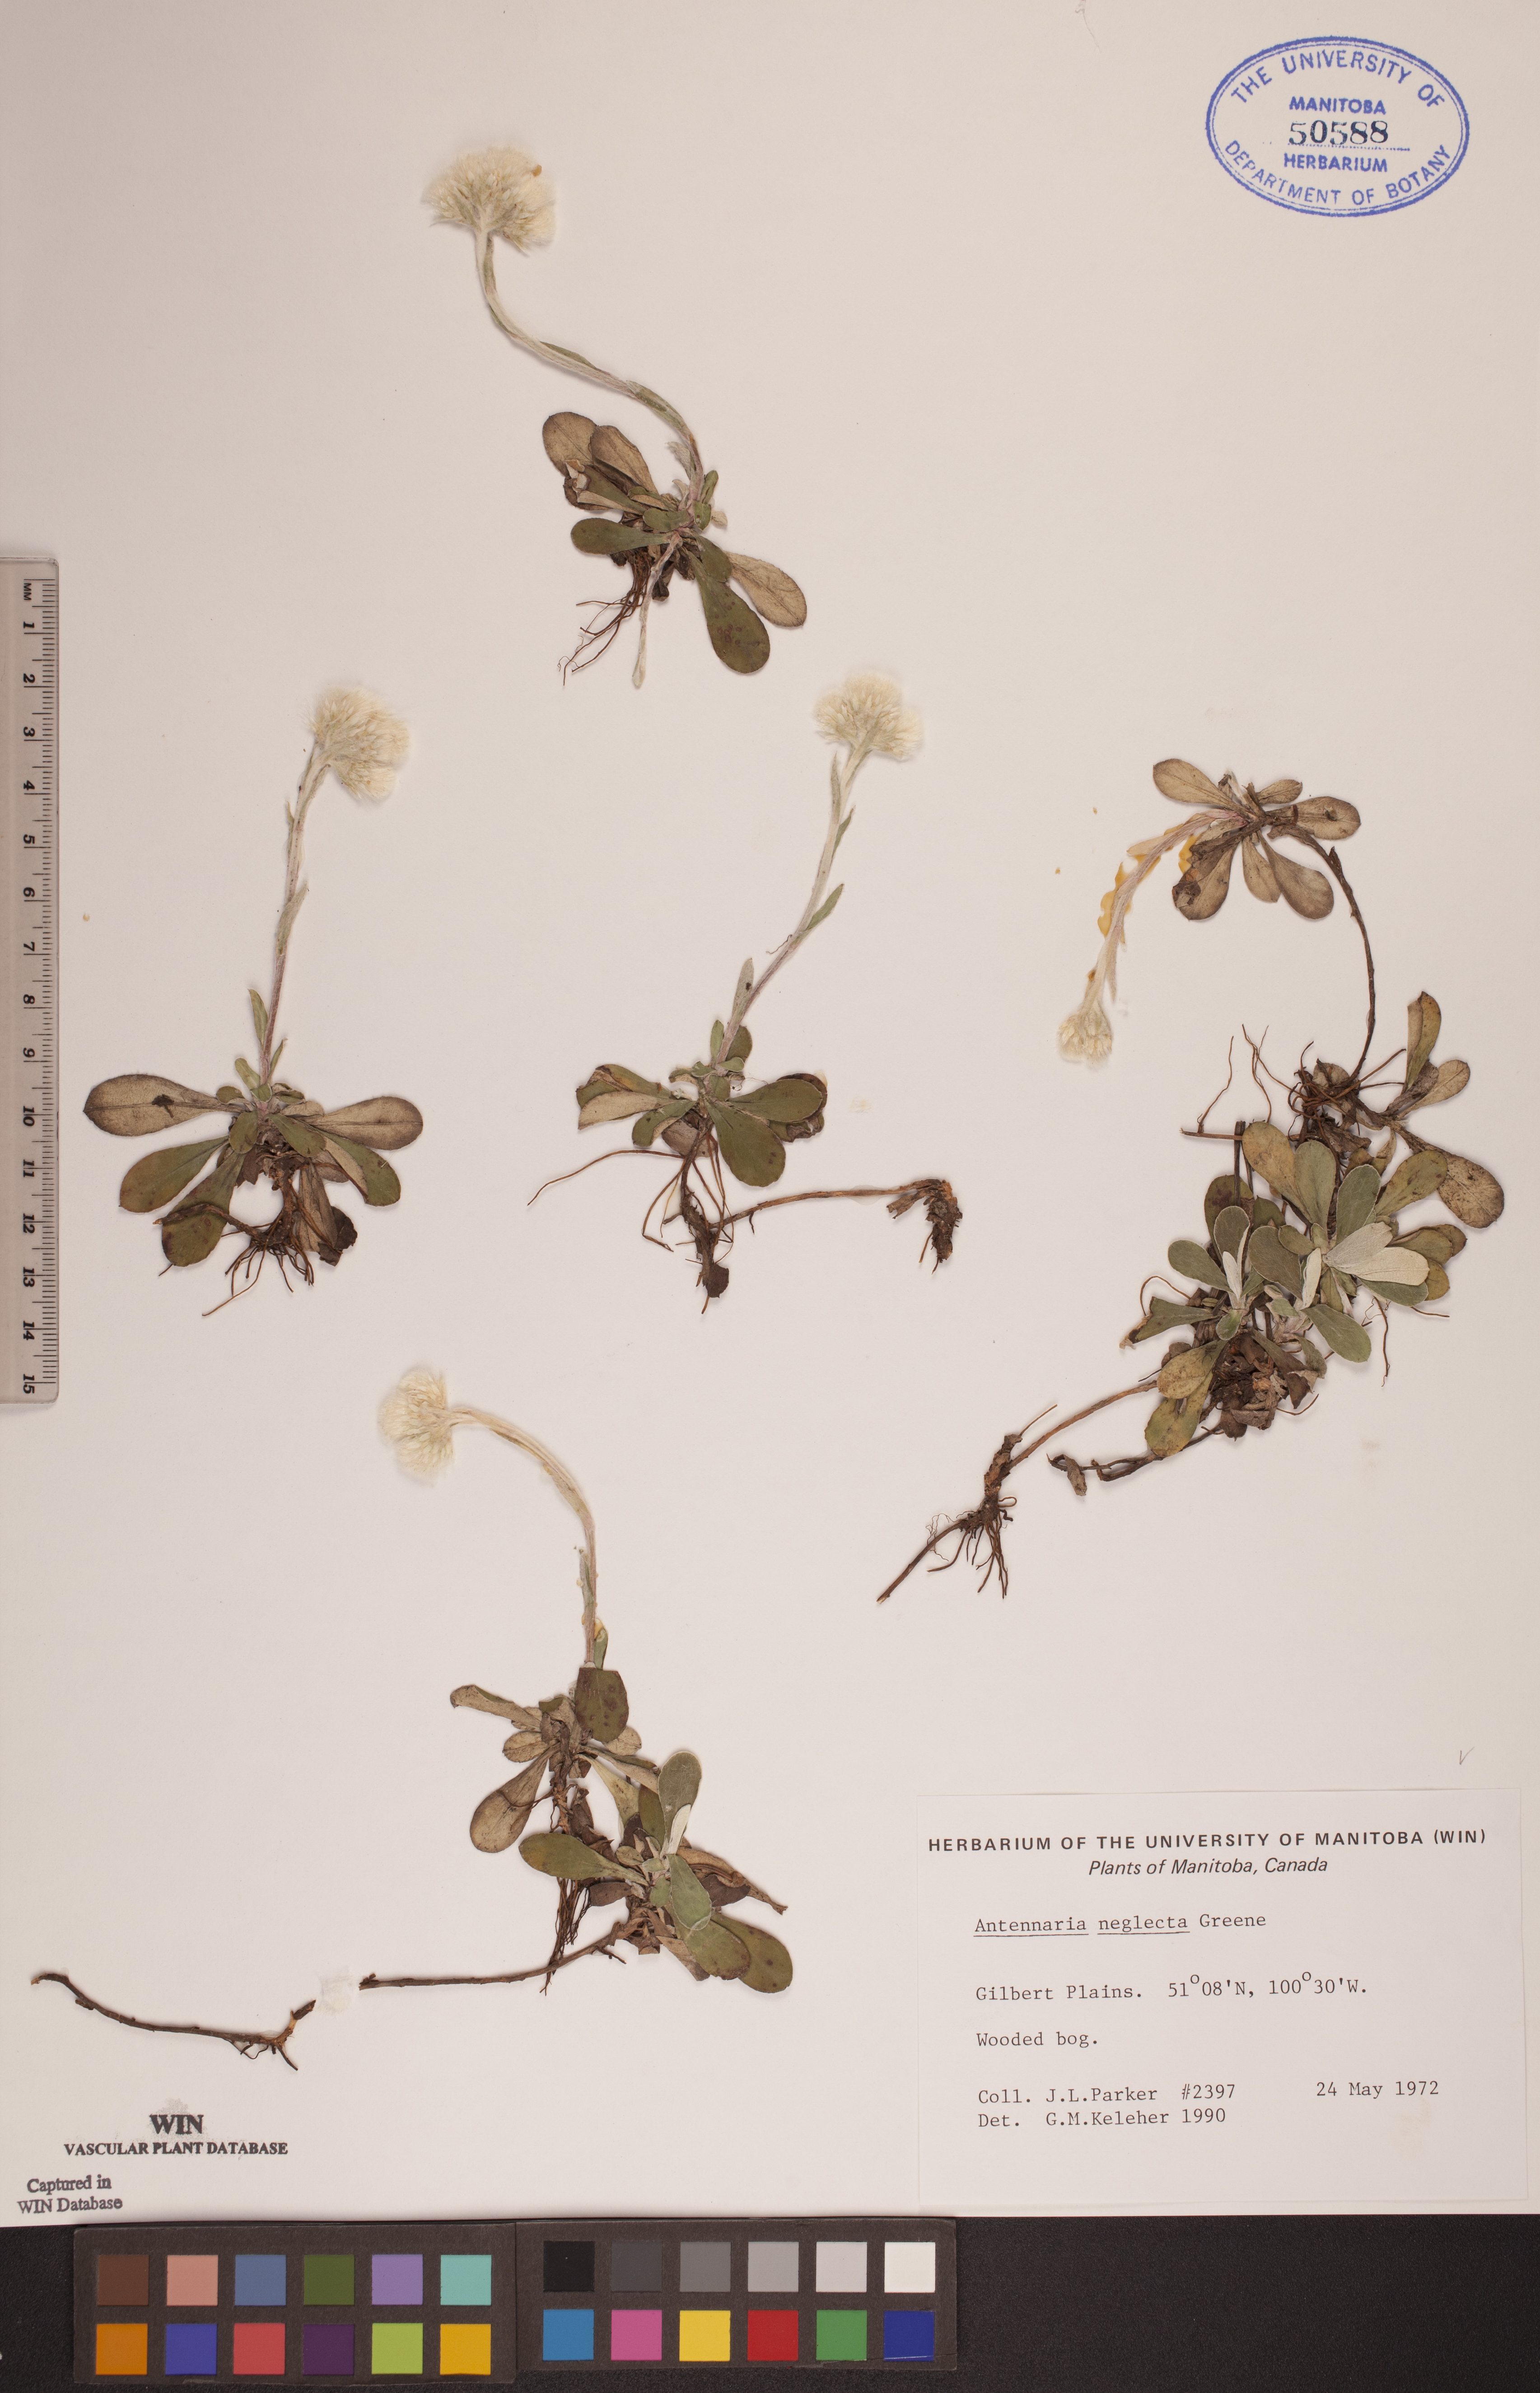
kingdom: Plantae
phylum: Tracheophyta
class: Magnoliopsida
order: Asterales
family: Asteraceae
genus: Antennaria
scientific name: Antennaria neglecta
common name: Field pussytoes
